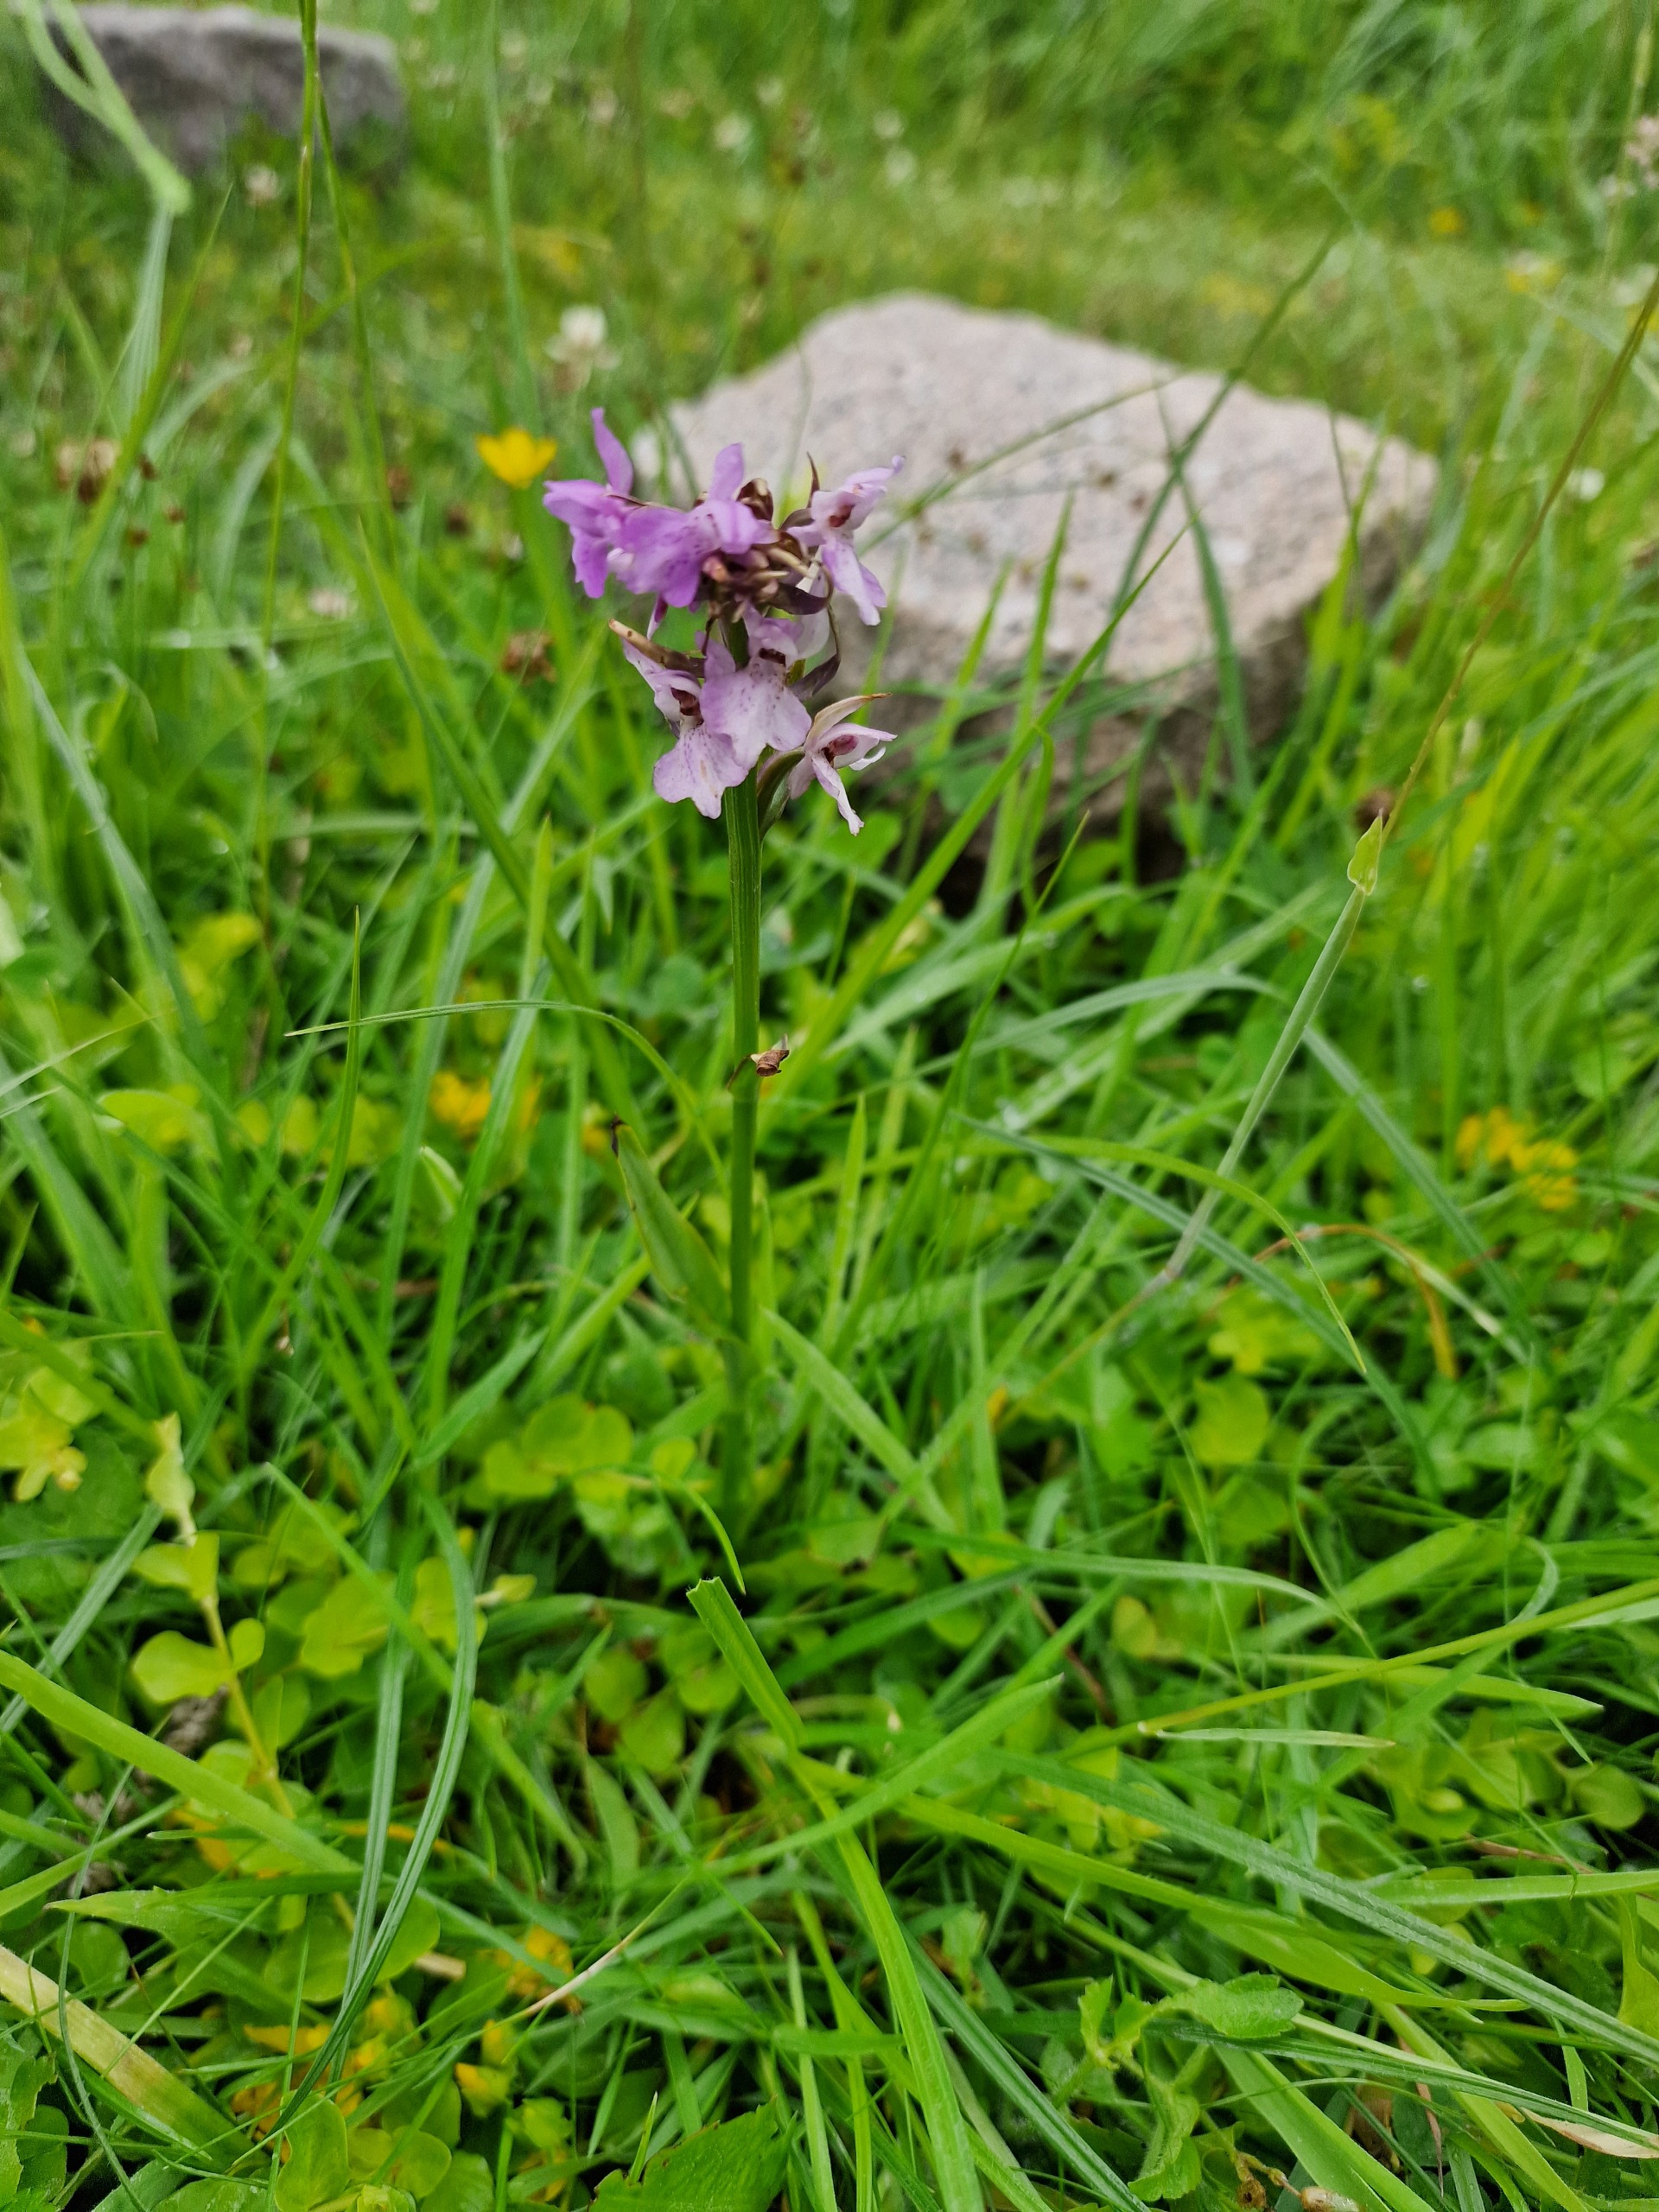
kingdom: Plantae
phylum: Tracheophyta
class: Liliopsida
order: Asparagales
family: Orchidaceae
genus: Dactylorhiza
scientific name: Dactylorhiza majalis
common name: Priklæbet gøgeurt
